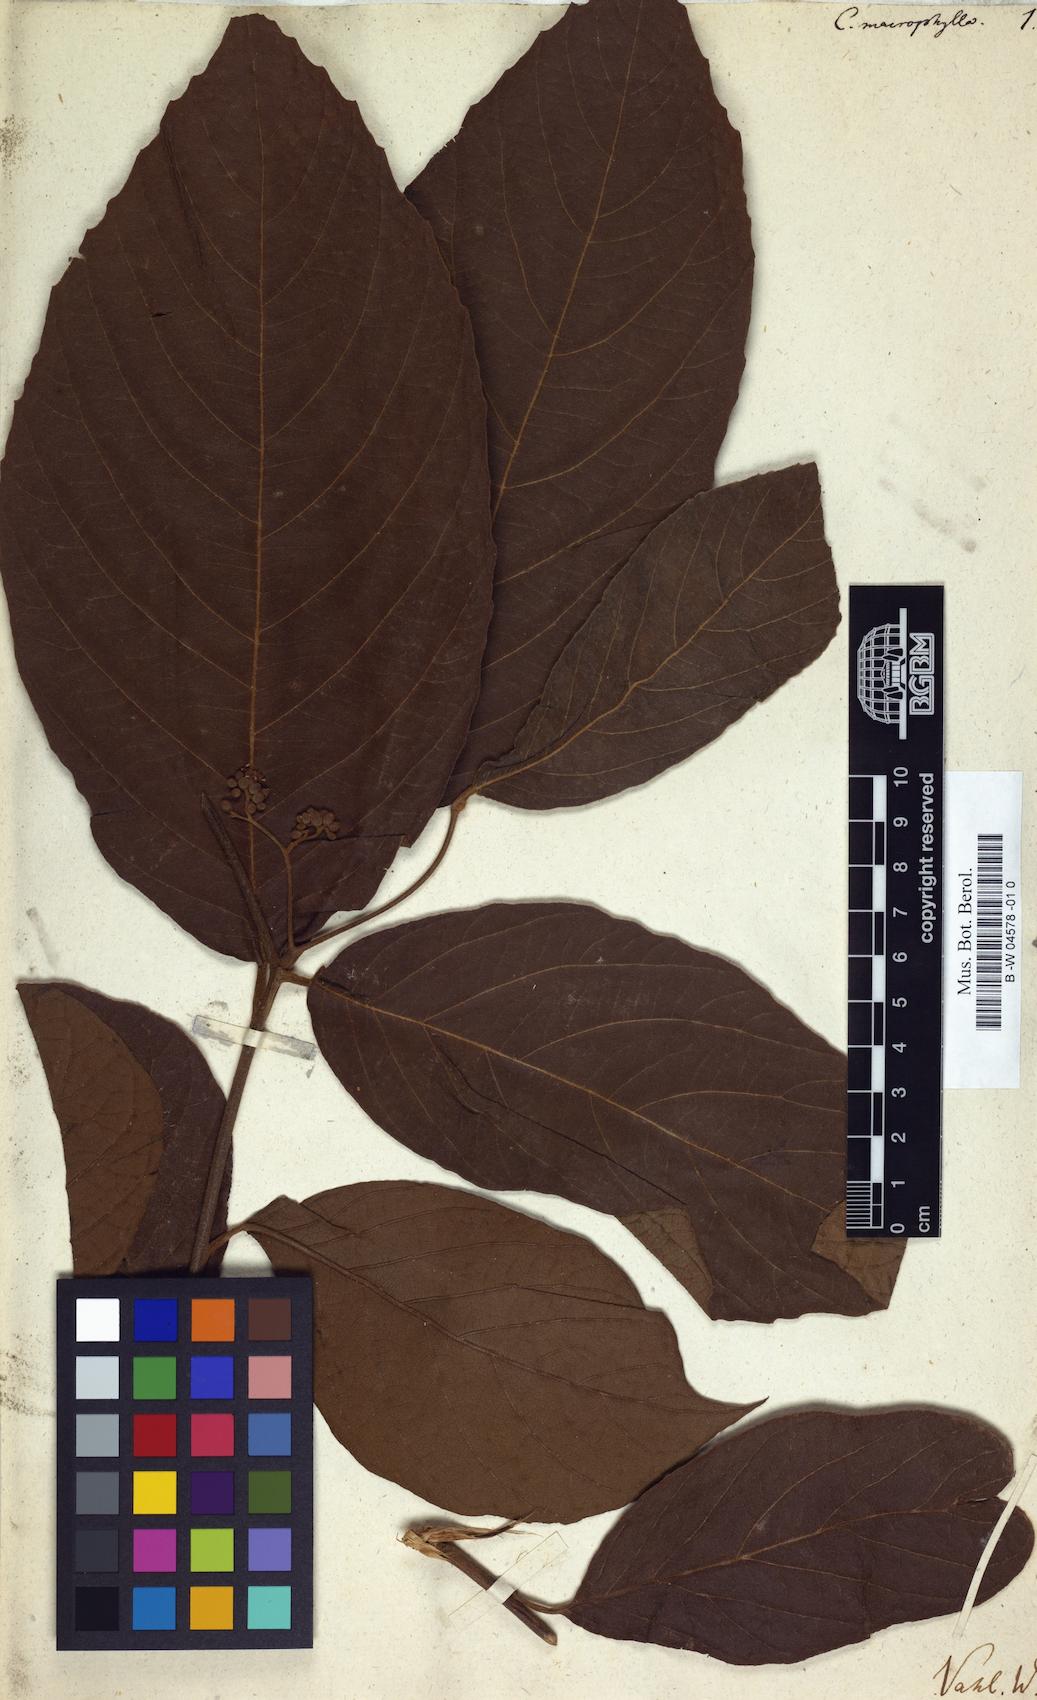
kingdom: Plantae
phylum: Tracheophyta
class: Magnoliopsida
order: Boraginales
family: Cordiaceae
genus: Cordia
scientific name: Cordia macrophylla
